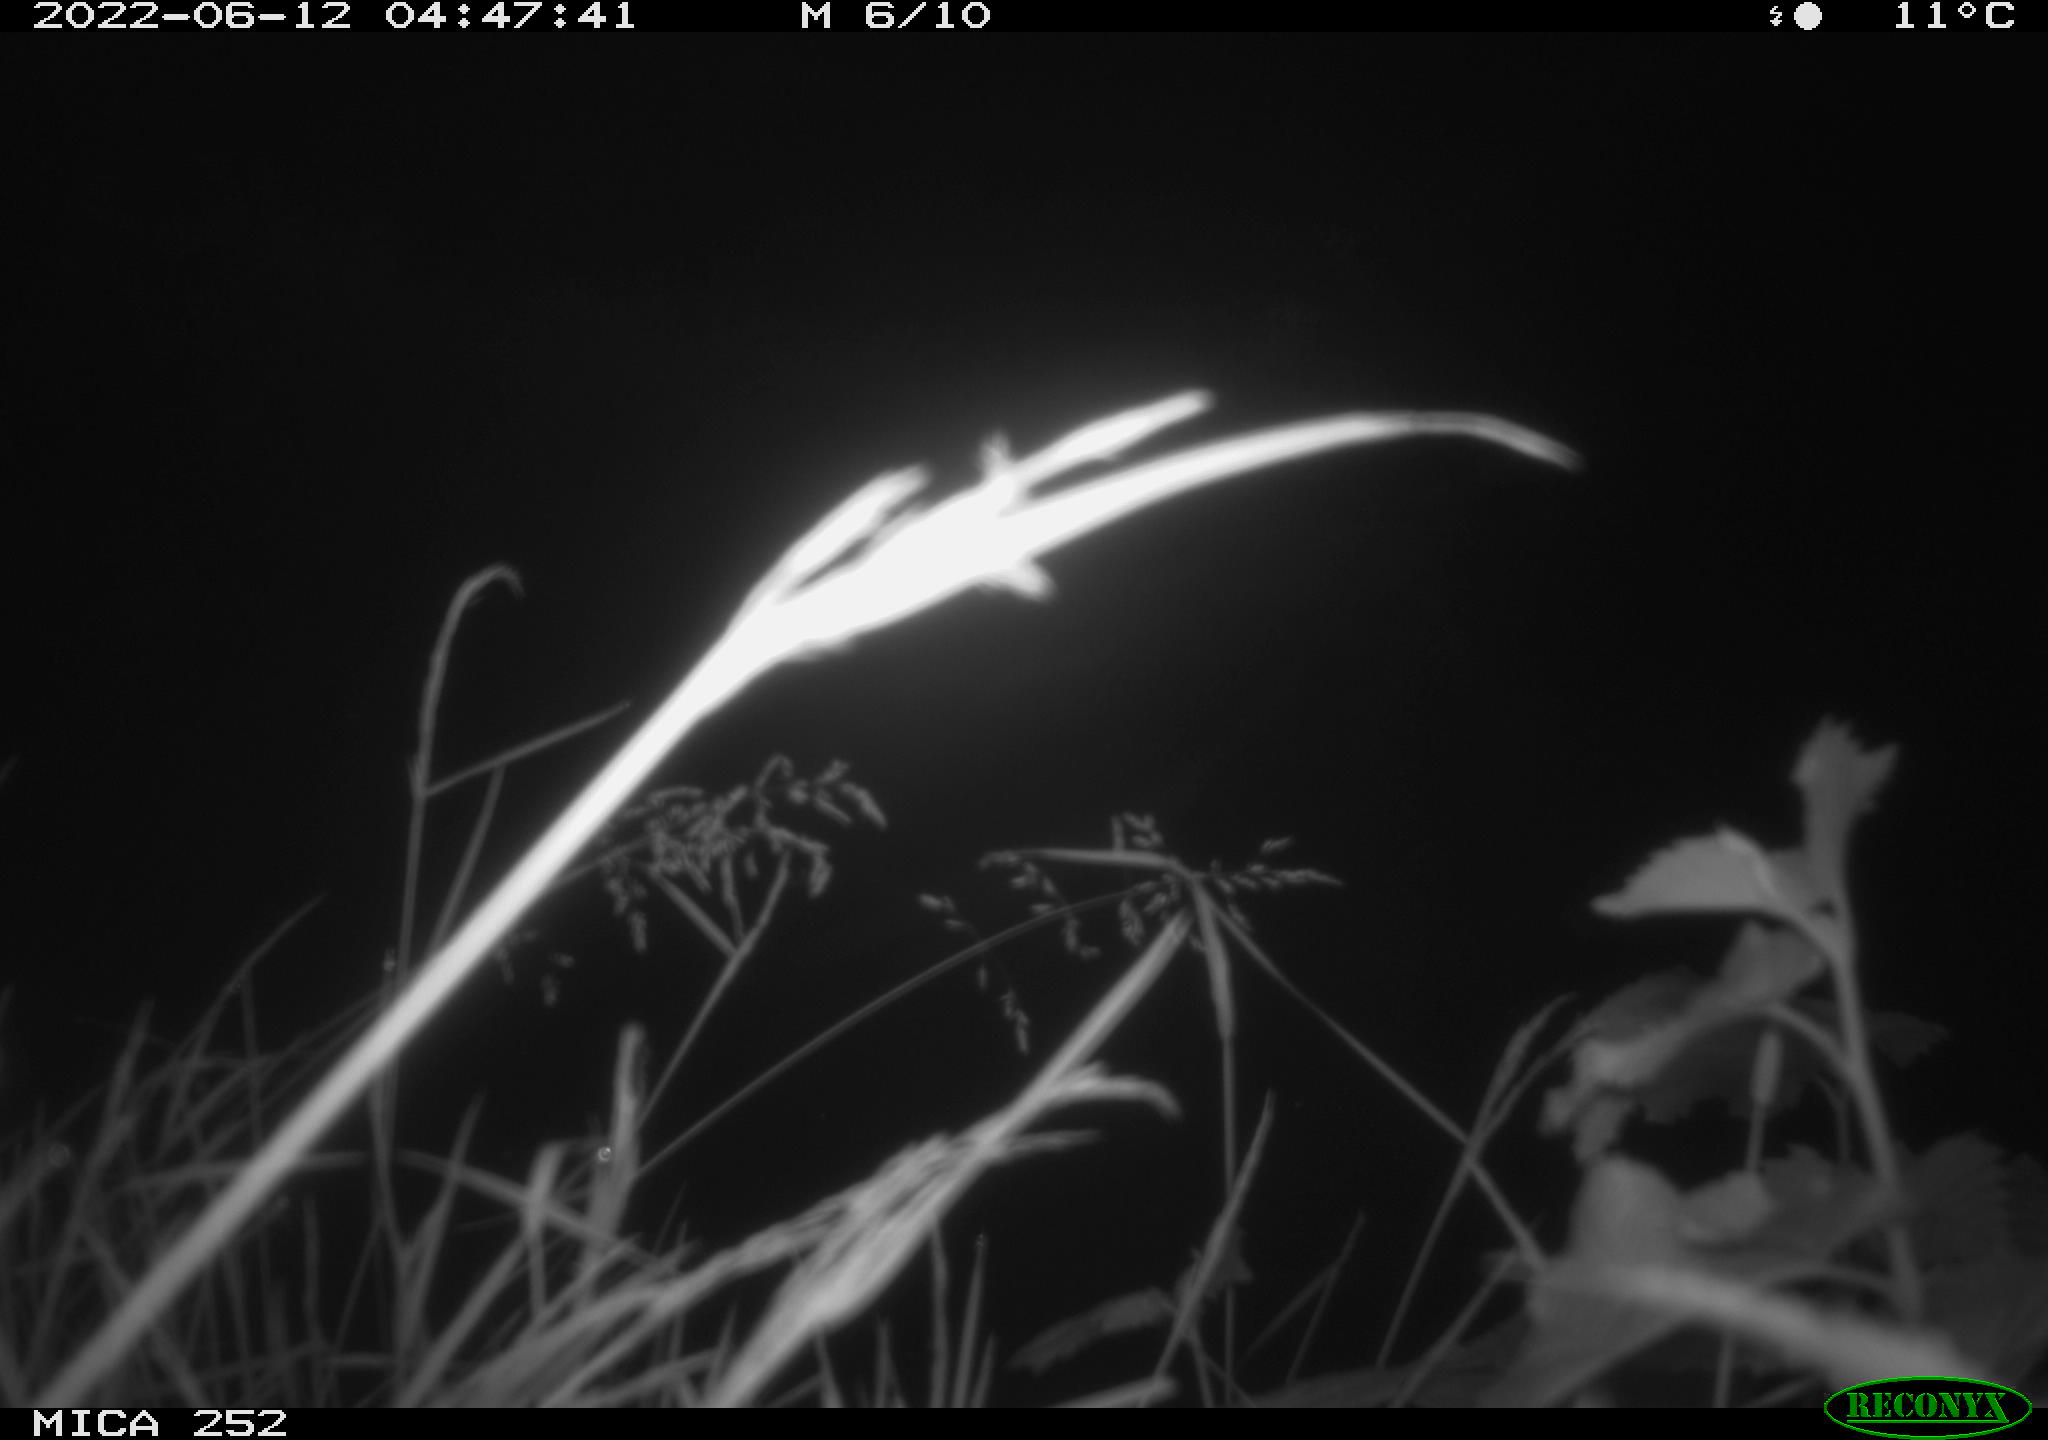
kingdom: Animalia
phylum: Chordata
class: Aves
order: Anseriformes
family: Anatidae
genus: Anas
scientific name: Anas platyrhynchos
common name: Mallard
